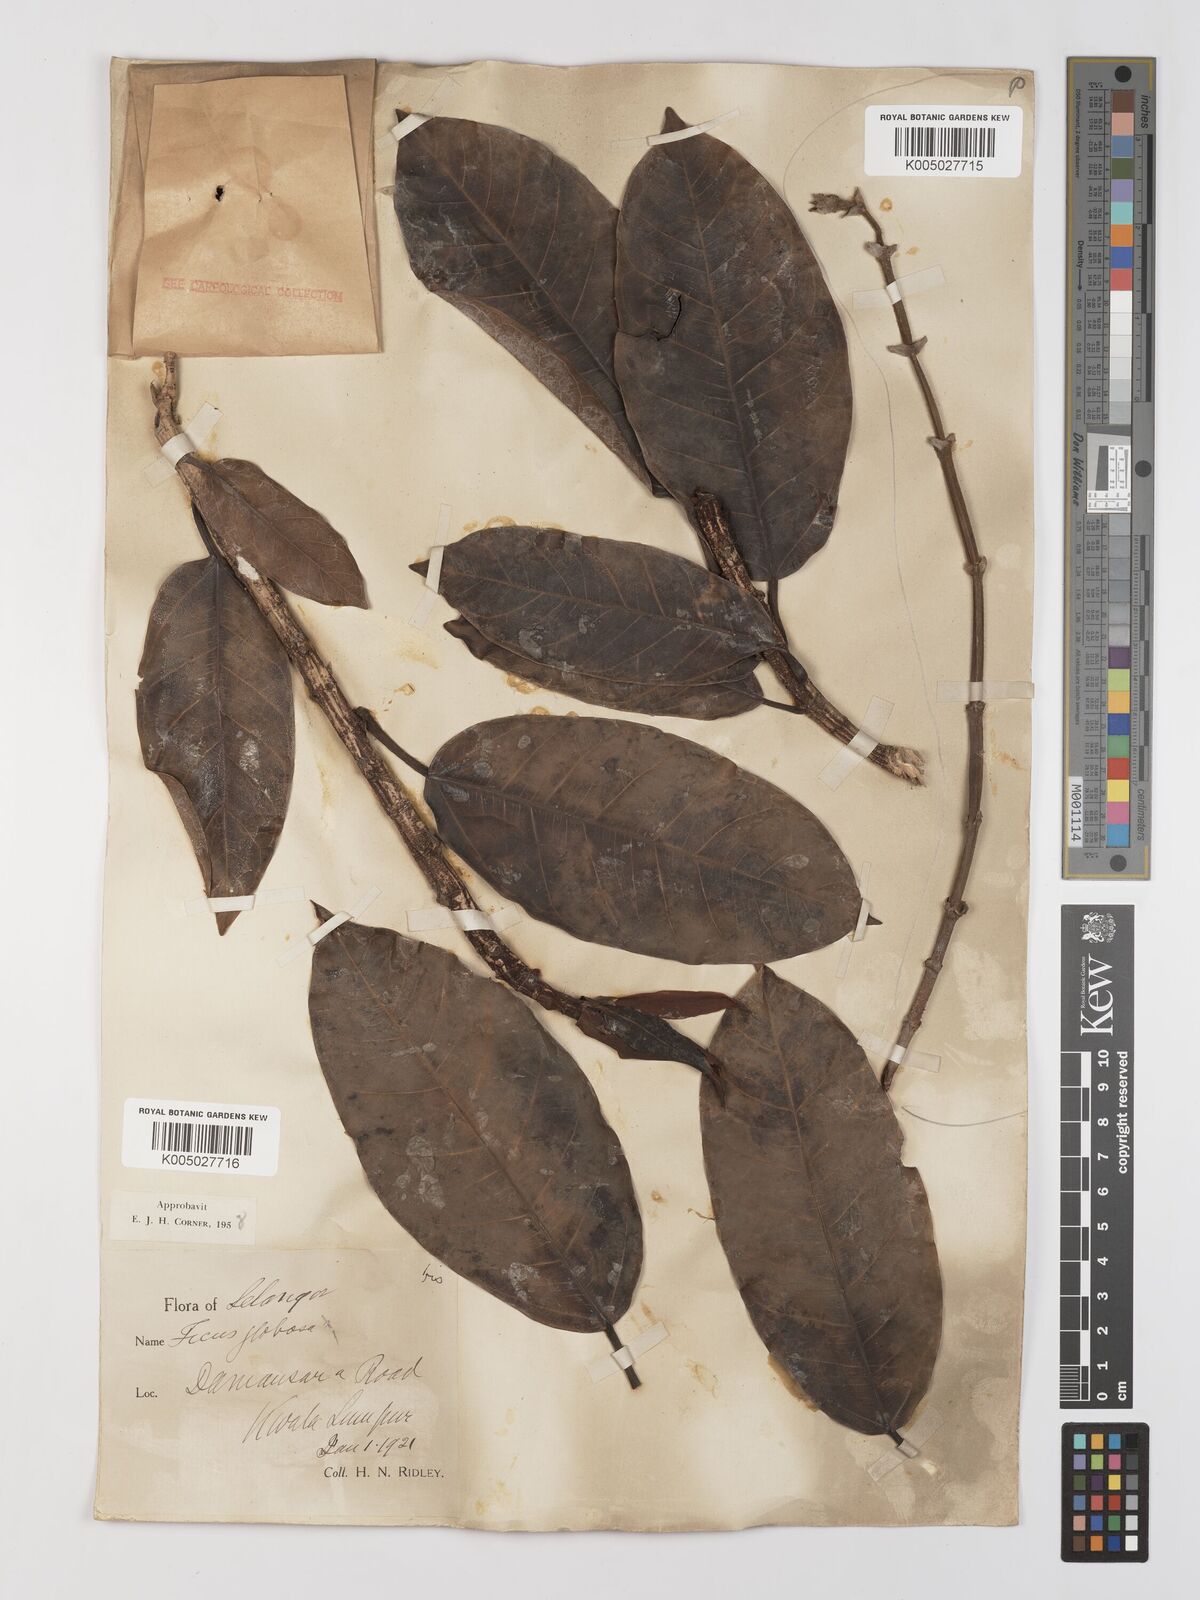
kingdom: Plantae
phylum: Tracheophyta
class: Magnoliopsida
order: Rosales
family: Moraceae
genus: Ficus
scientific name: Ficus
